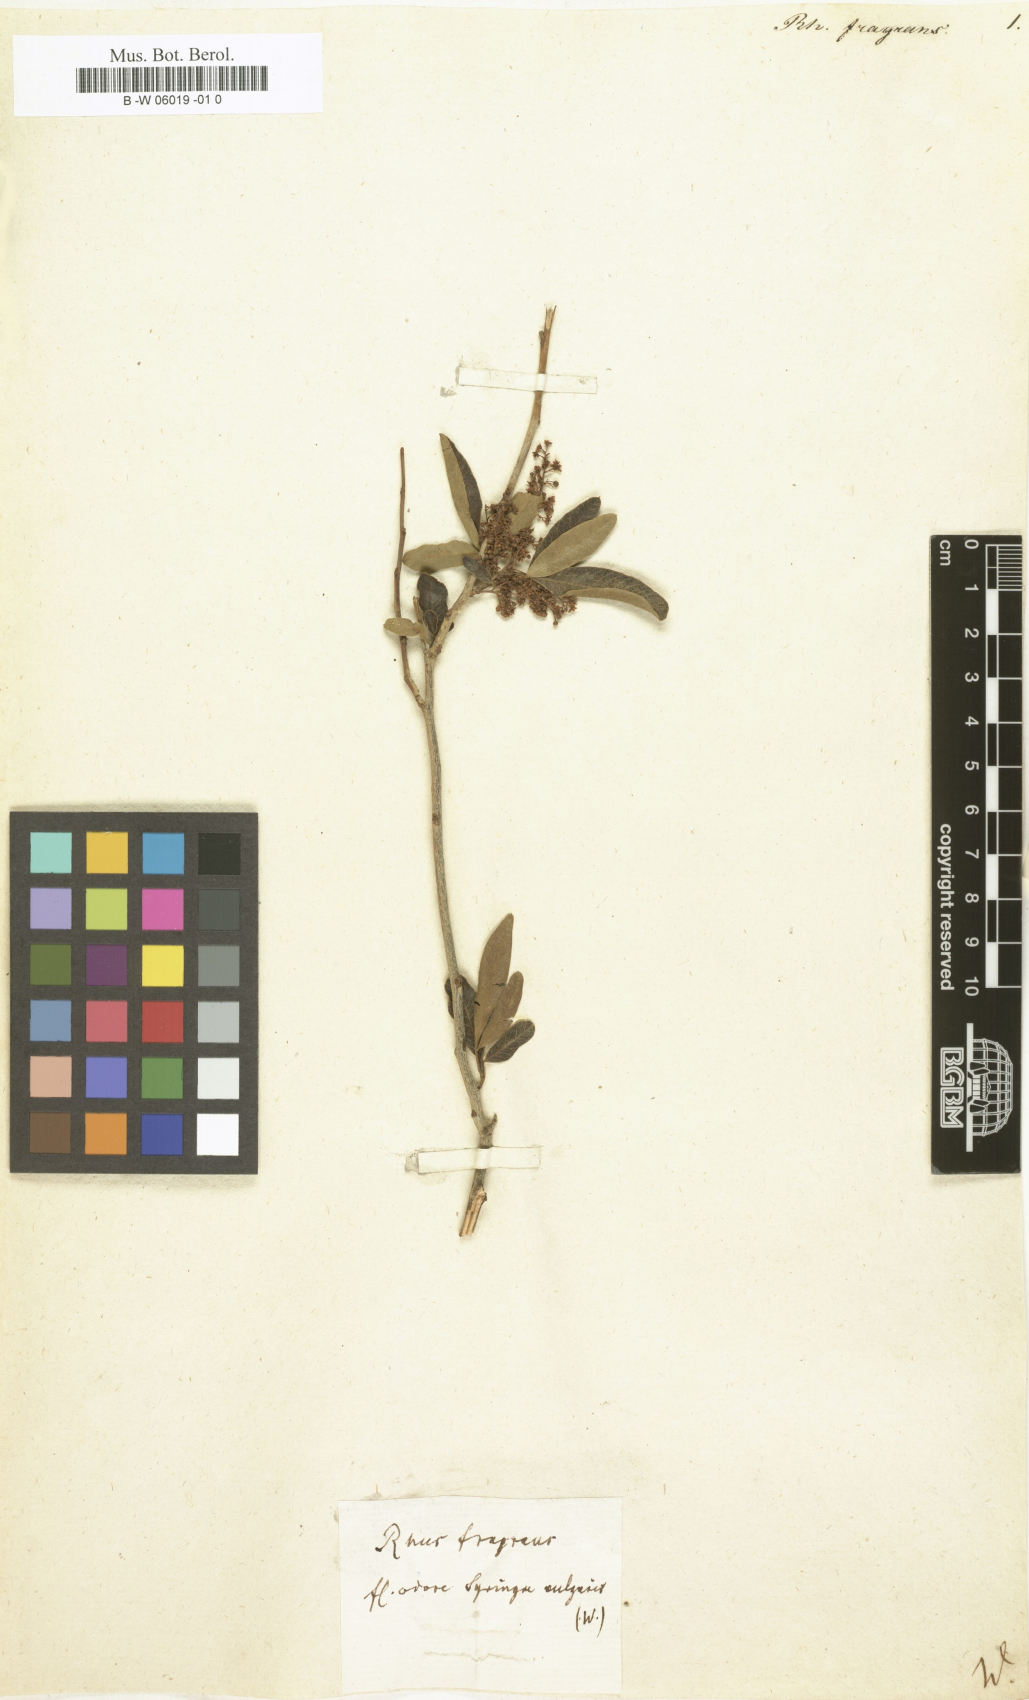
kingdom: Plantae
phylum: Tracheophyta
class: Magnoliopsida
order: Sapindales
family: Anacardiaceae
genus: Searsia
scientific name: Searsia lancea
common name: Cashew
